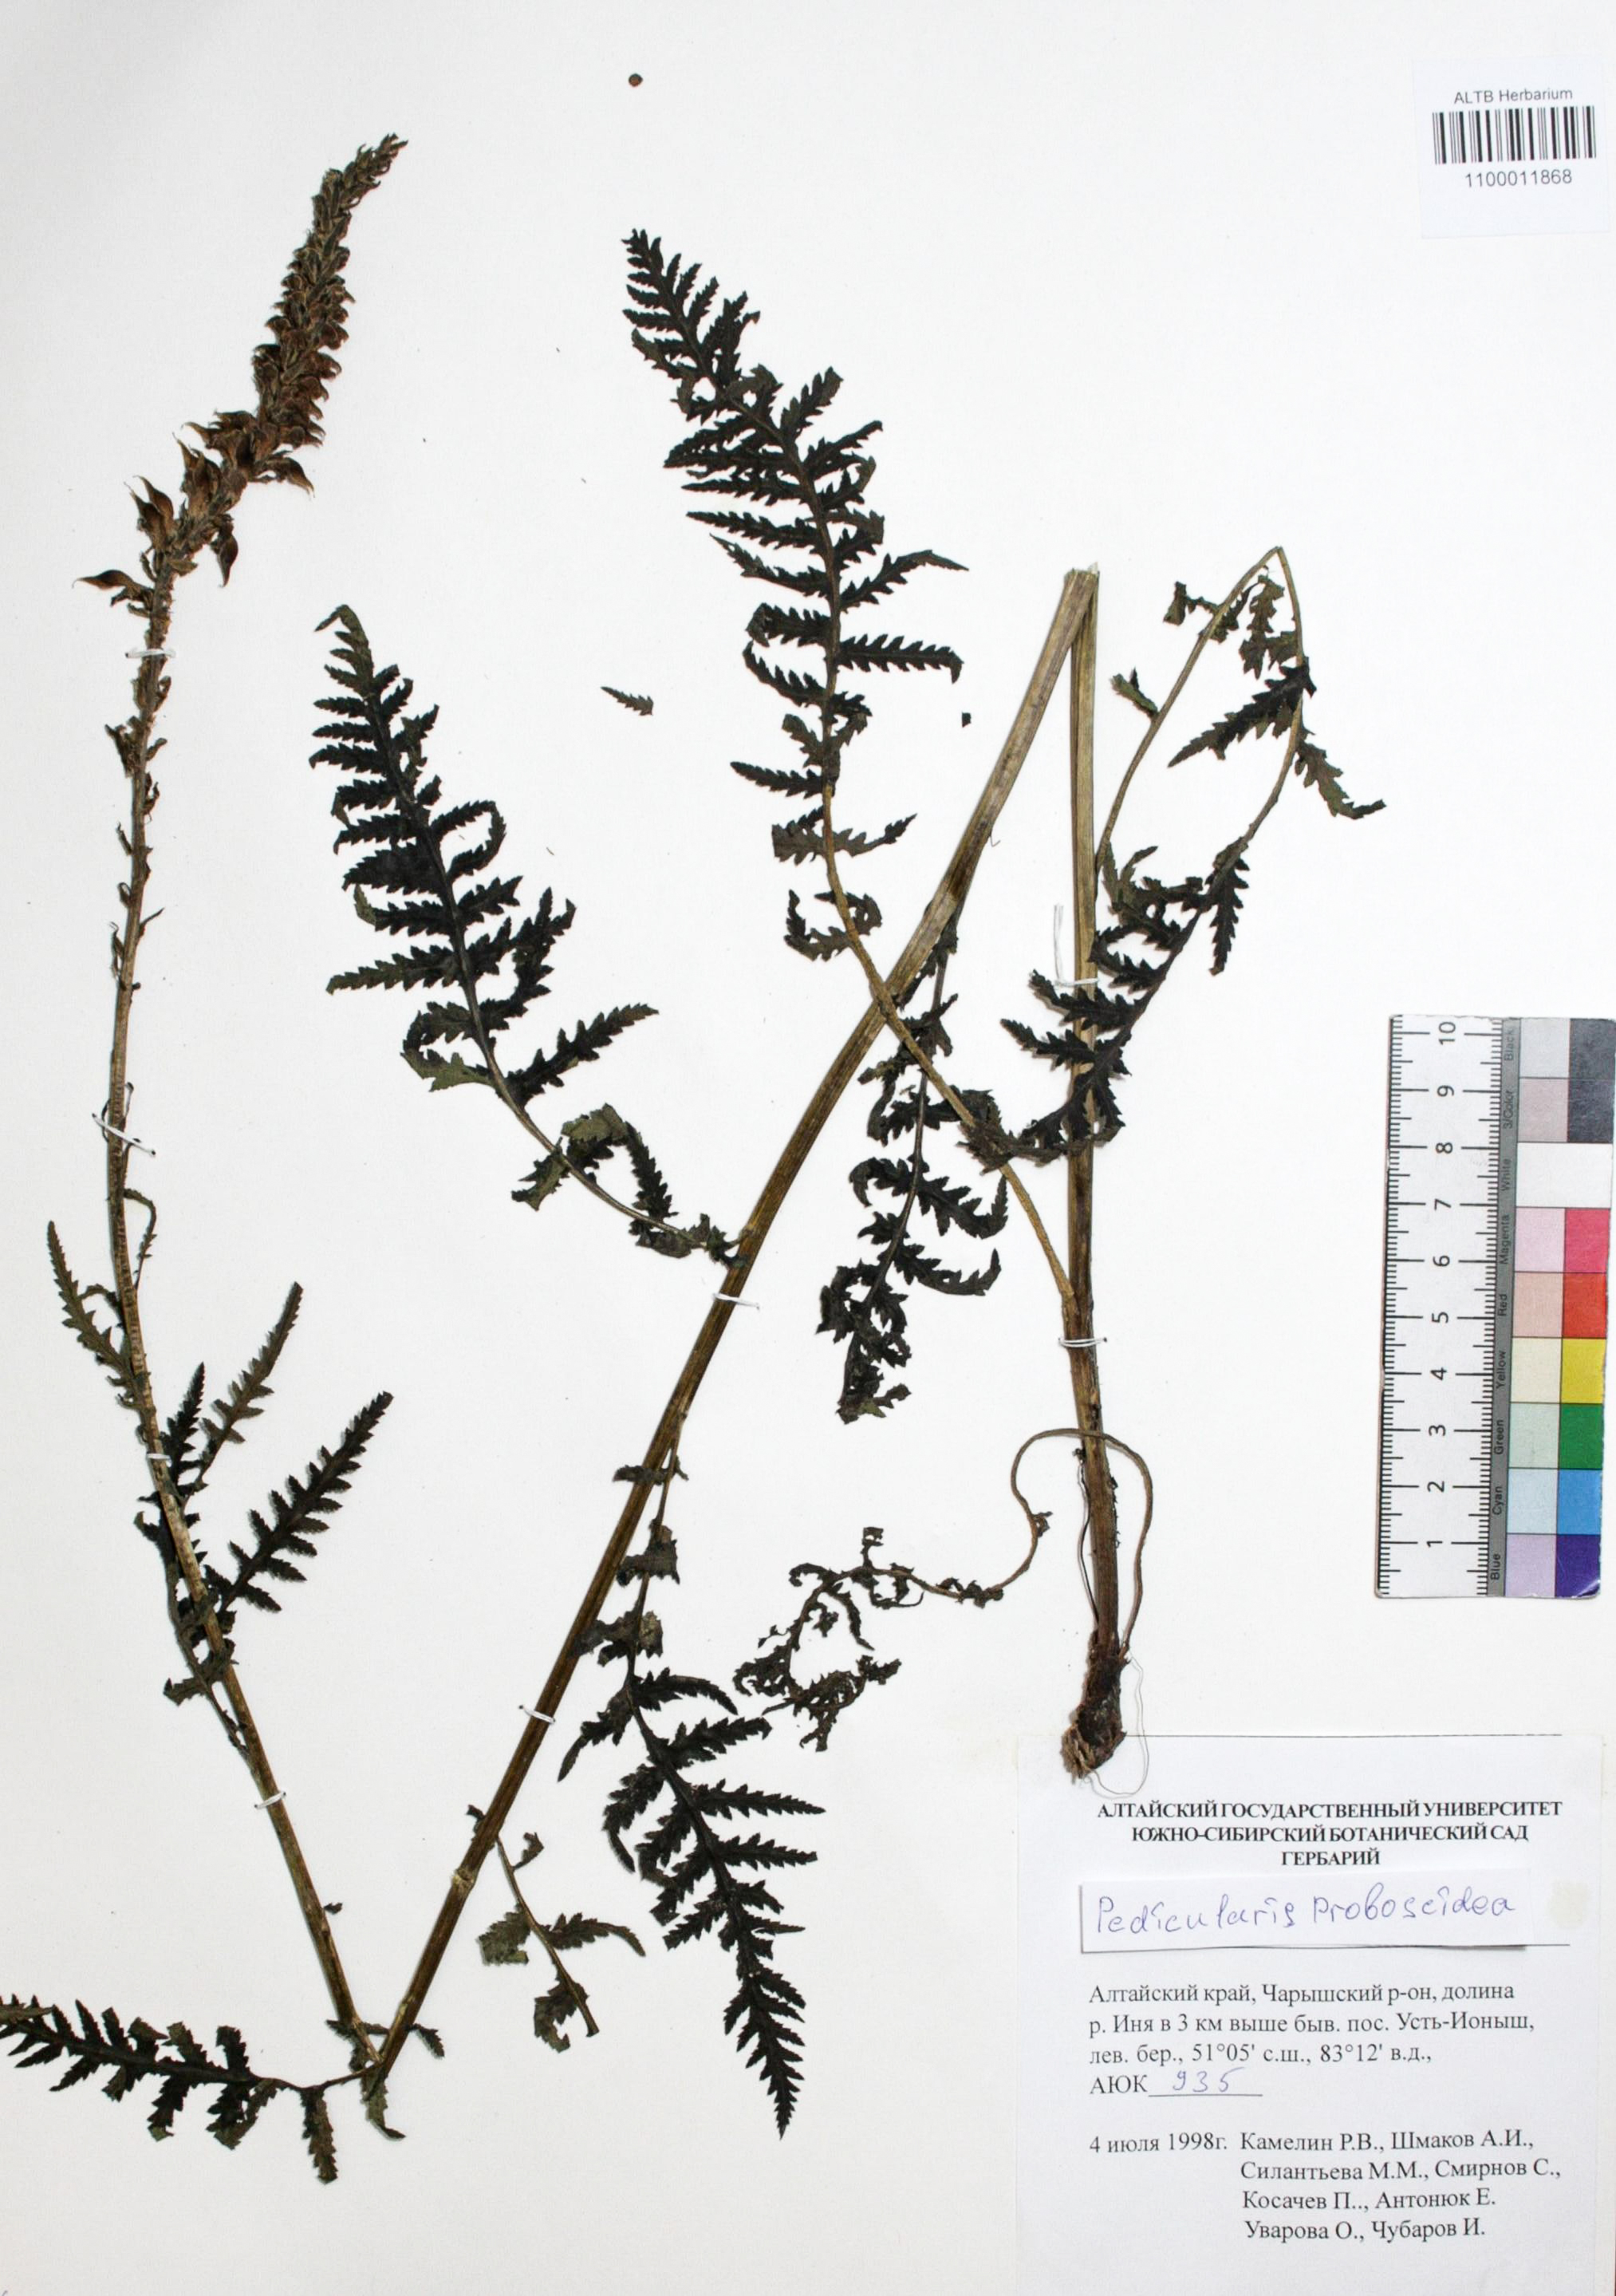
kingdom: Plantae
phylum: Tracheophyta
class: Magnoliopsida
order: Lamiales
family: Orobanchaceae
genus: Pedicularis
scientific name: Pedicularis proboscidea
